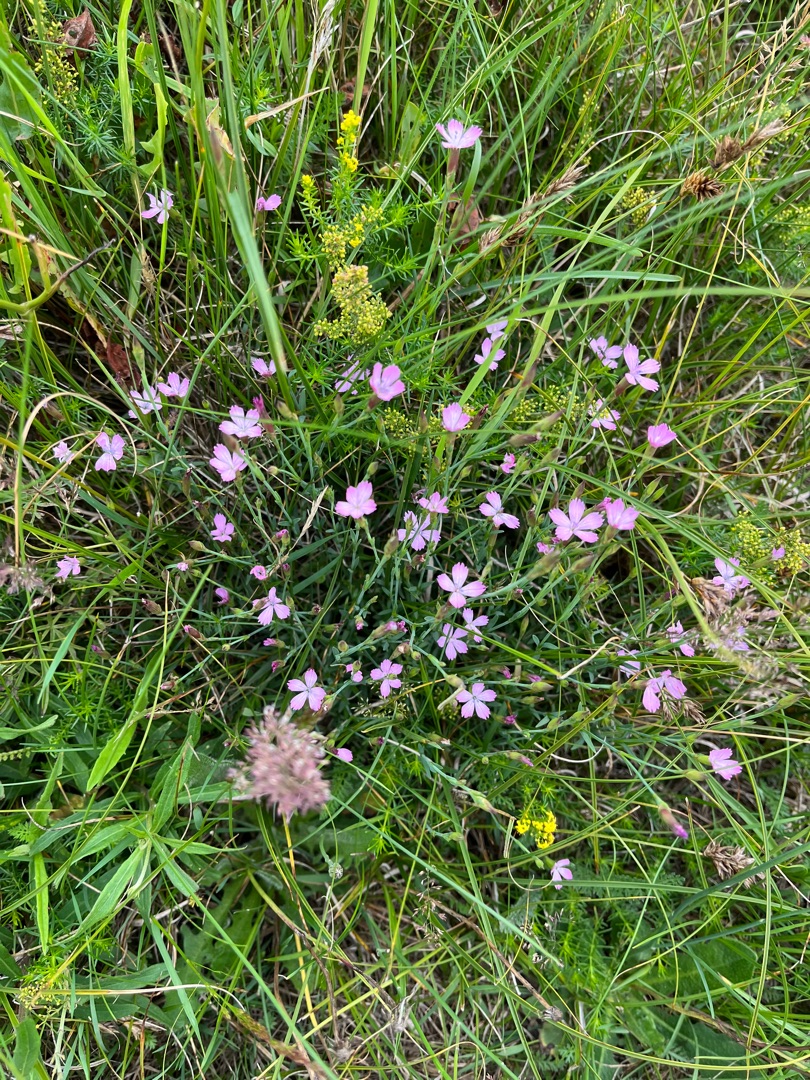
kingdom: Plantae
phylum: Tracheophyta
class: Magnoliopsida
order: Caryophyllales
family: Caryophyllaceae
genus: Dianthus
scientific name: Dianthus deltoides
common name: Bakke-nellike
